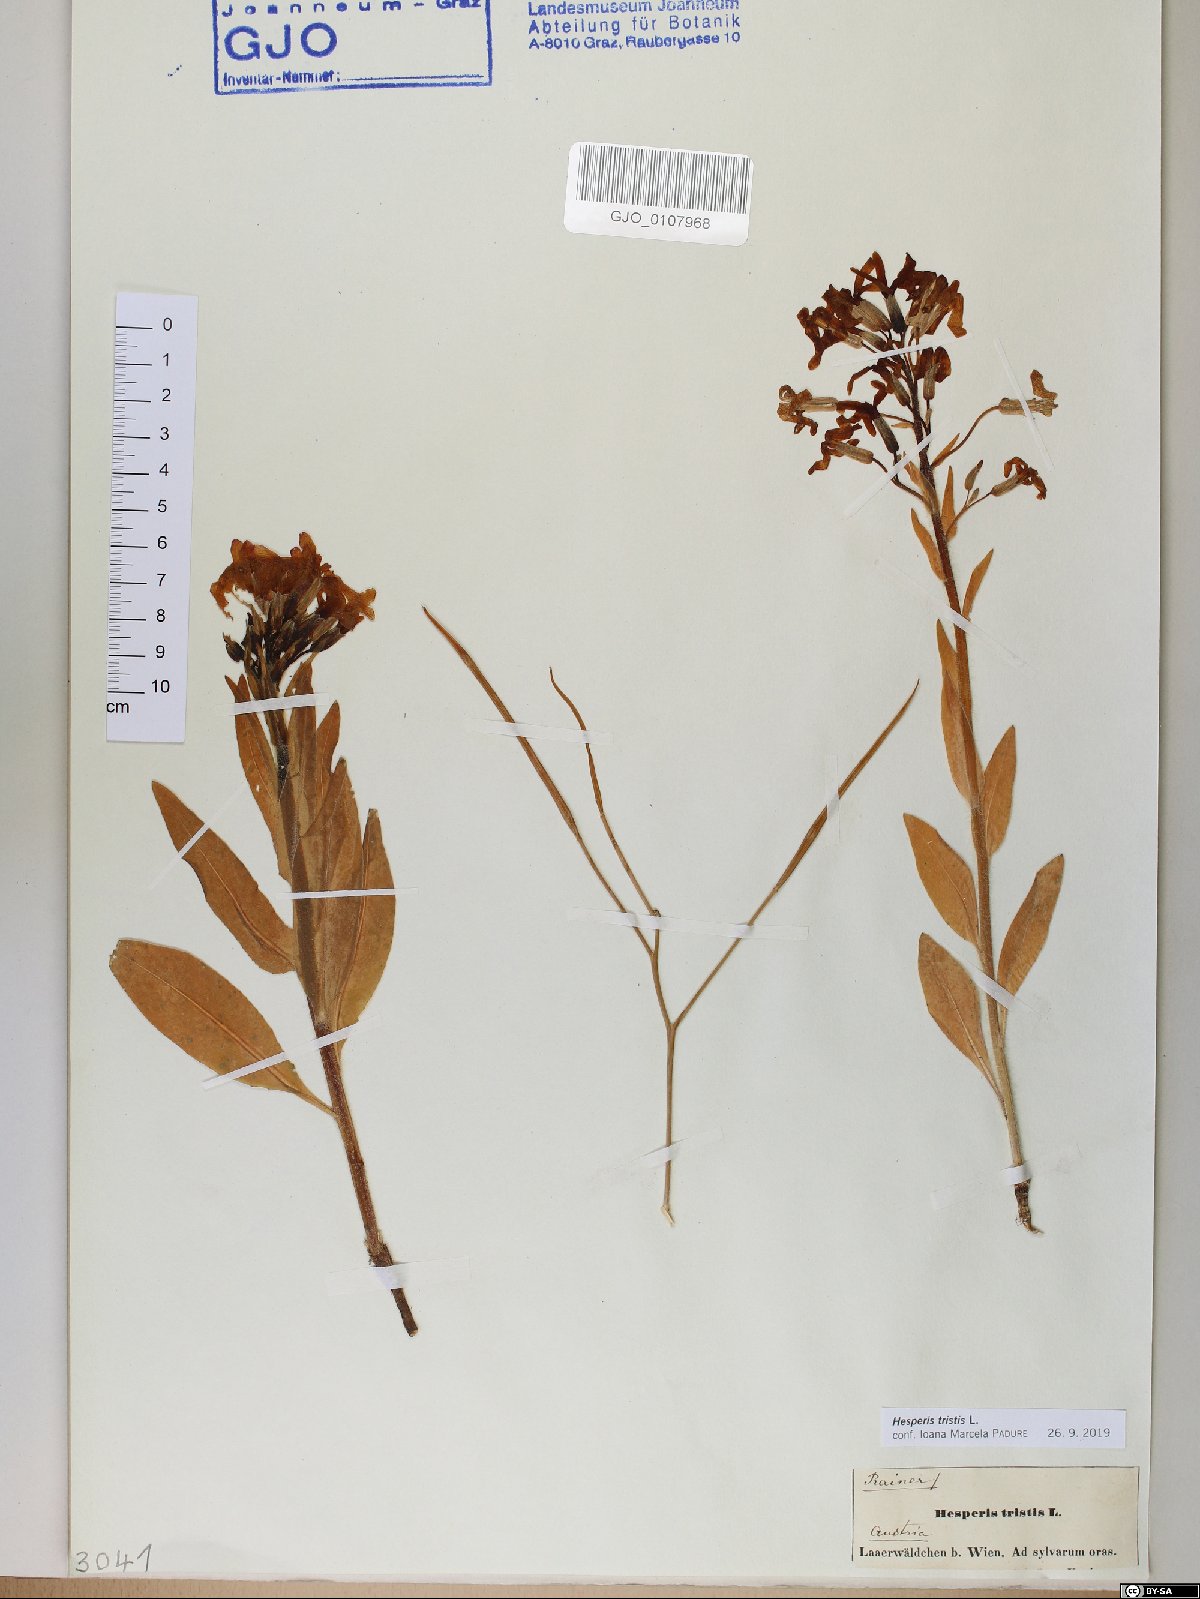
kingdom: Plantae
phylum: Tracheophyta
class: Magnoliopsida
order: Brassicales
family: Brassicaceae
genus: Hesperis
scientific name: Hesperis tristis
